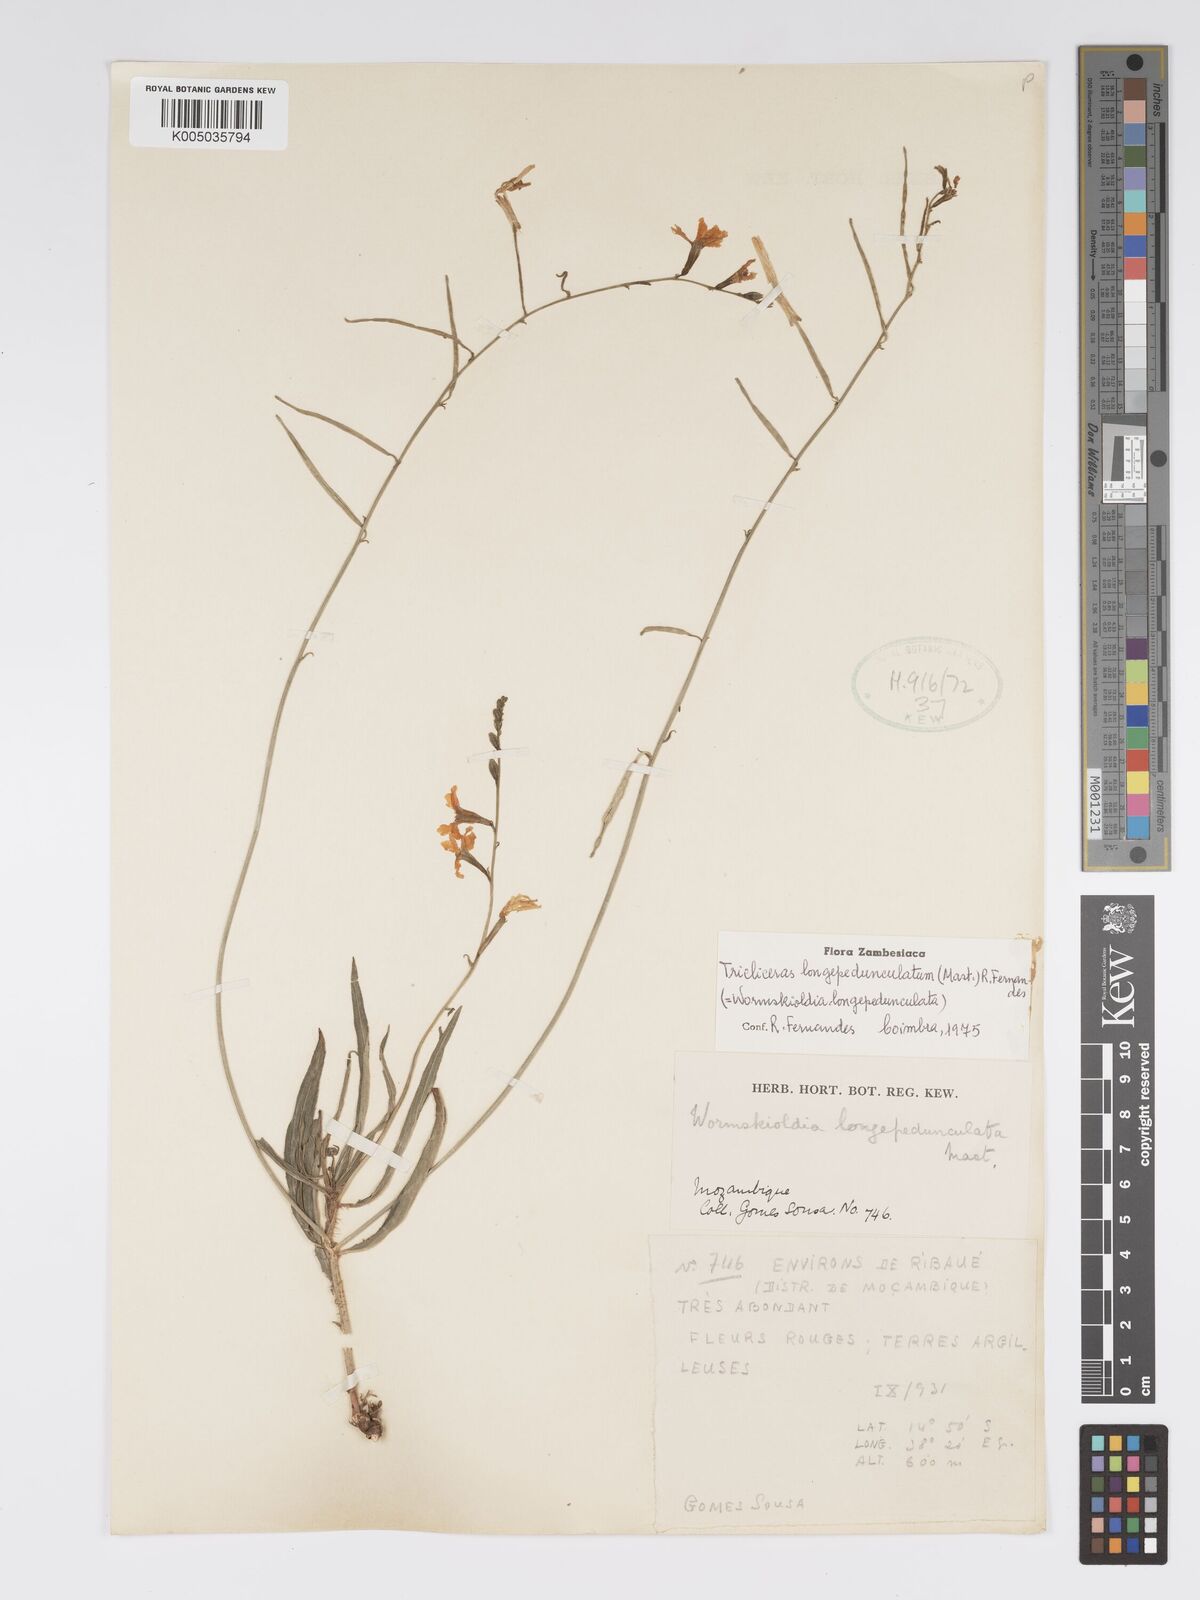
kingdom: Plantae
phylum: Tracheophyta
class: Magnoliopsida
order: Malpighiales
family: Turneraceae
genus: Tricliceras
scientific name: Tricliceras longepedunculatum
